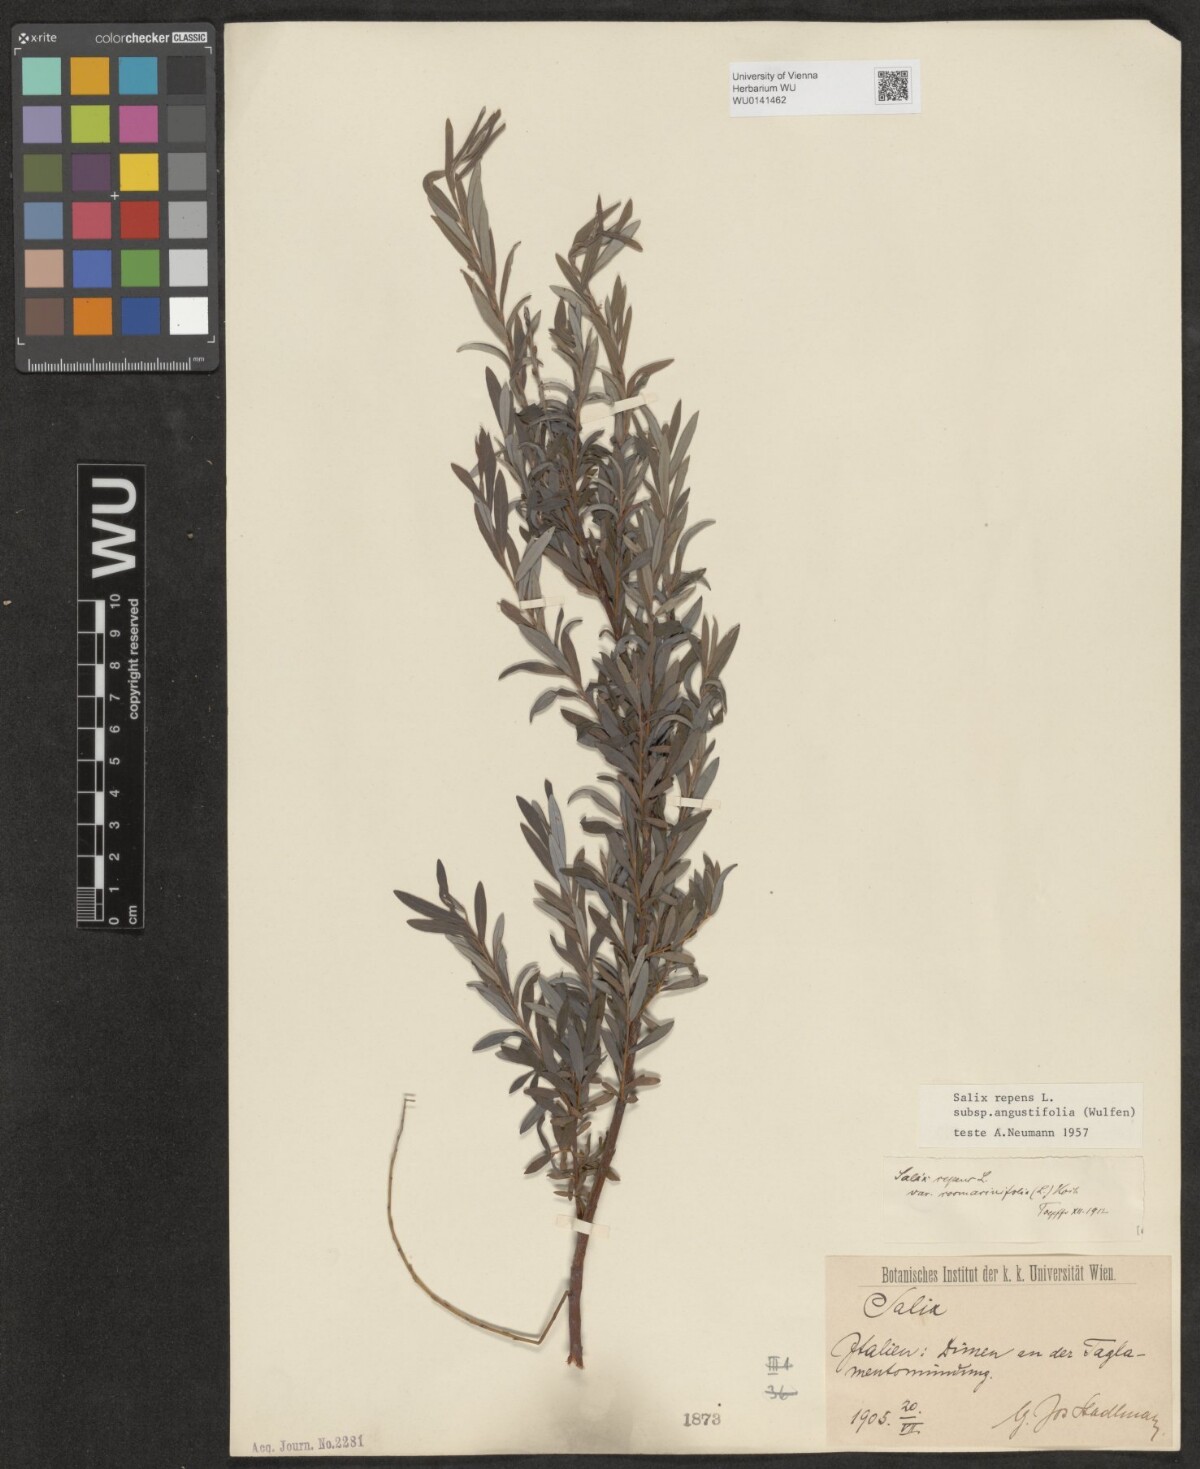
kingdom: Plantae
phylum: Tracheophyta
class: Magnoliopsida
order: Malpighiales
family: Salicaceae
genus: Salix
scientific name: Salix rosmarinifolia
